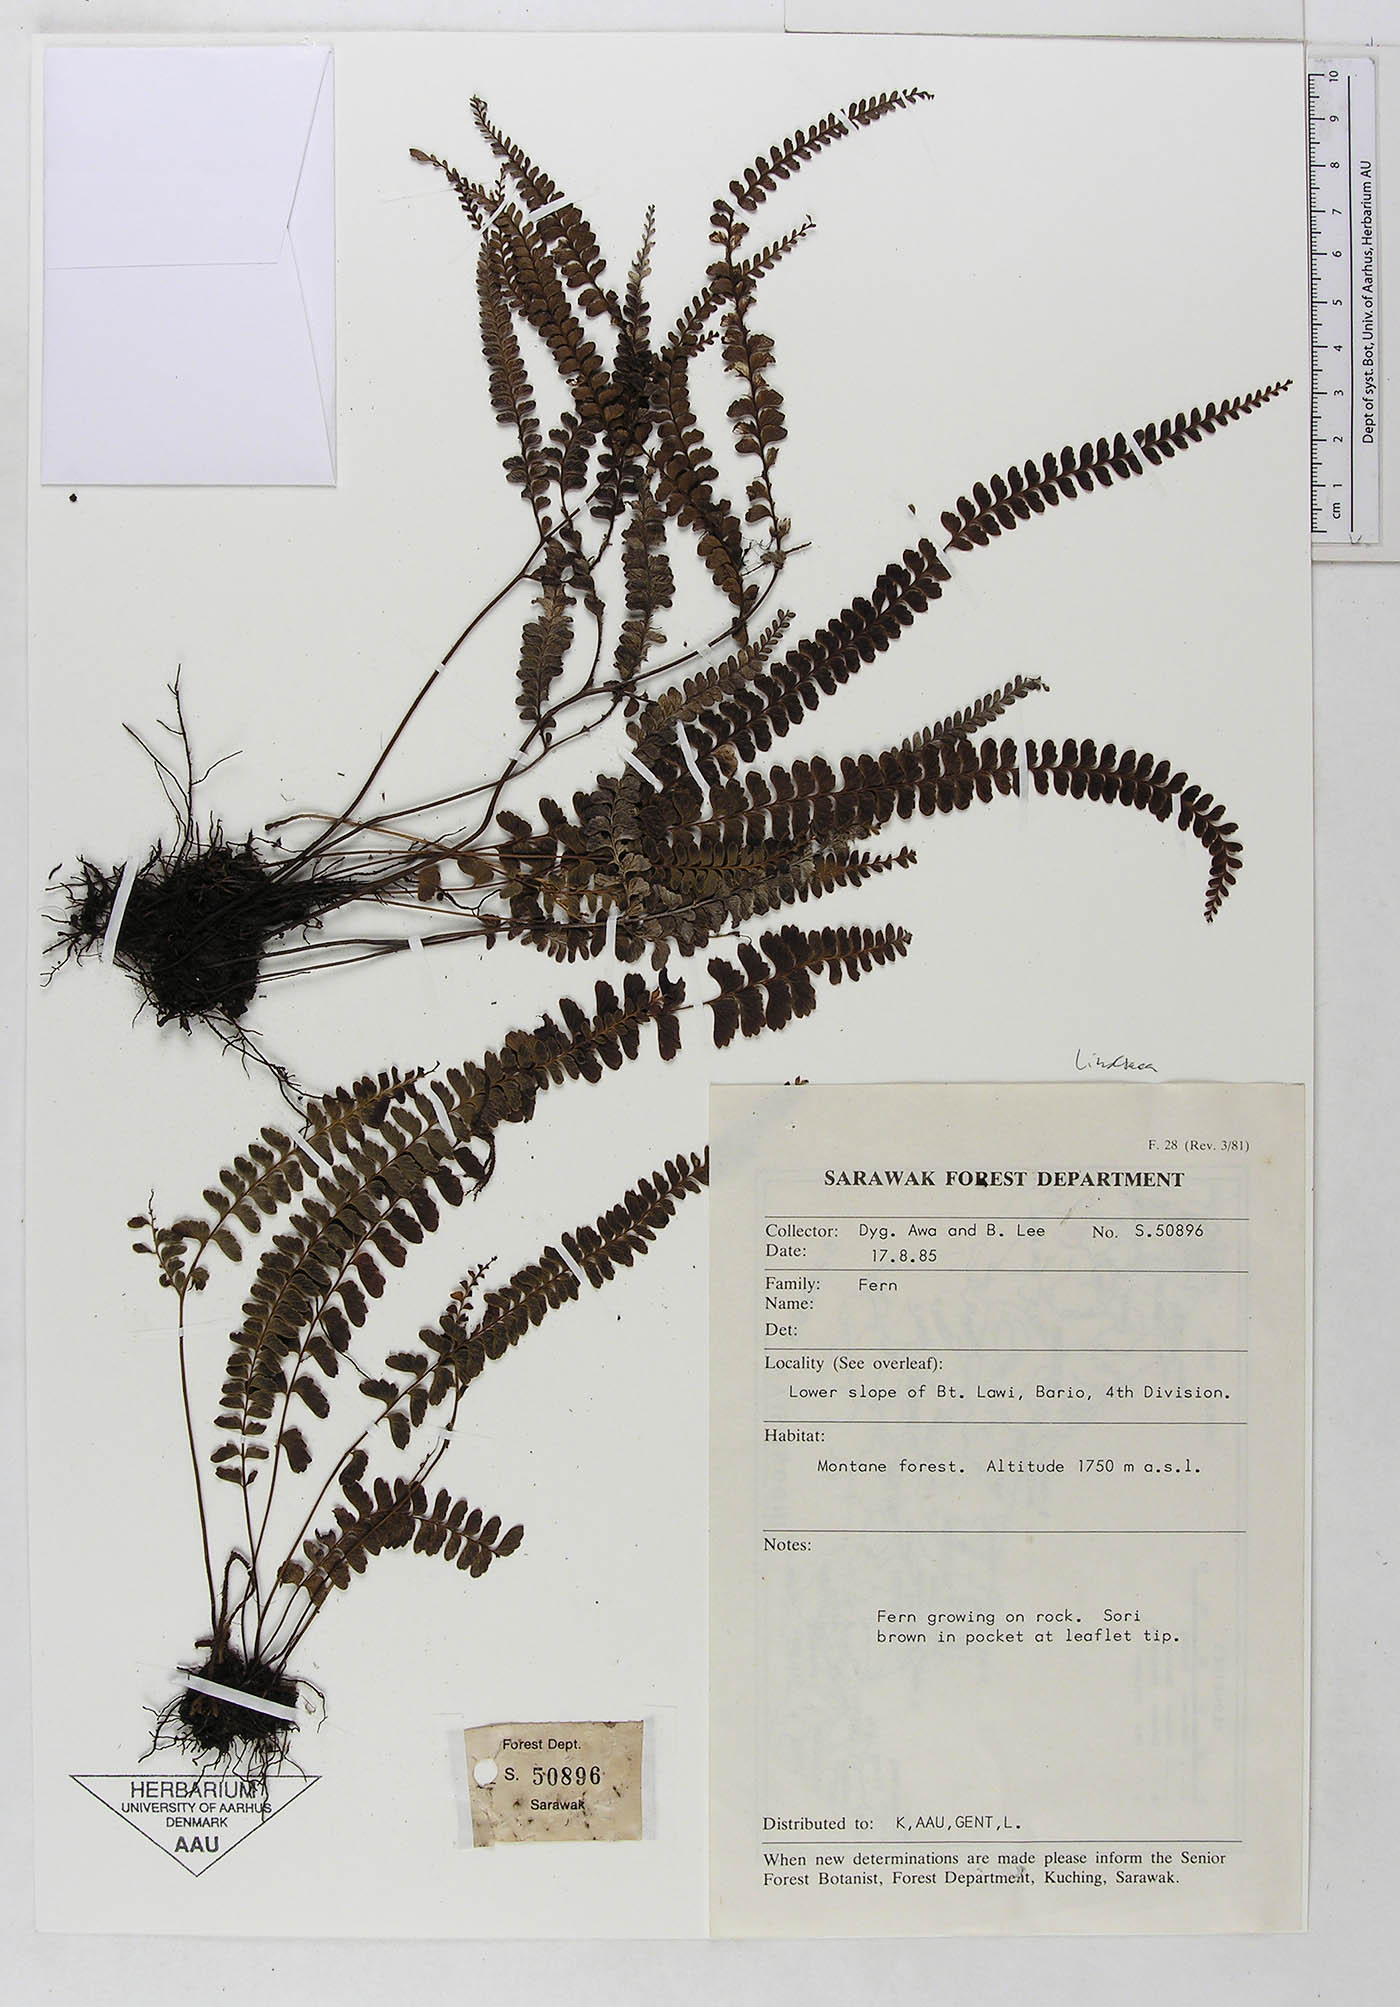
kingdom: Plantae
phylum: Tracheophyta
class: Polypodiopsida
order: Polypodiales
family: Dennstaedtiaceae
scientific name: Dennstaedtiaceae
